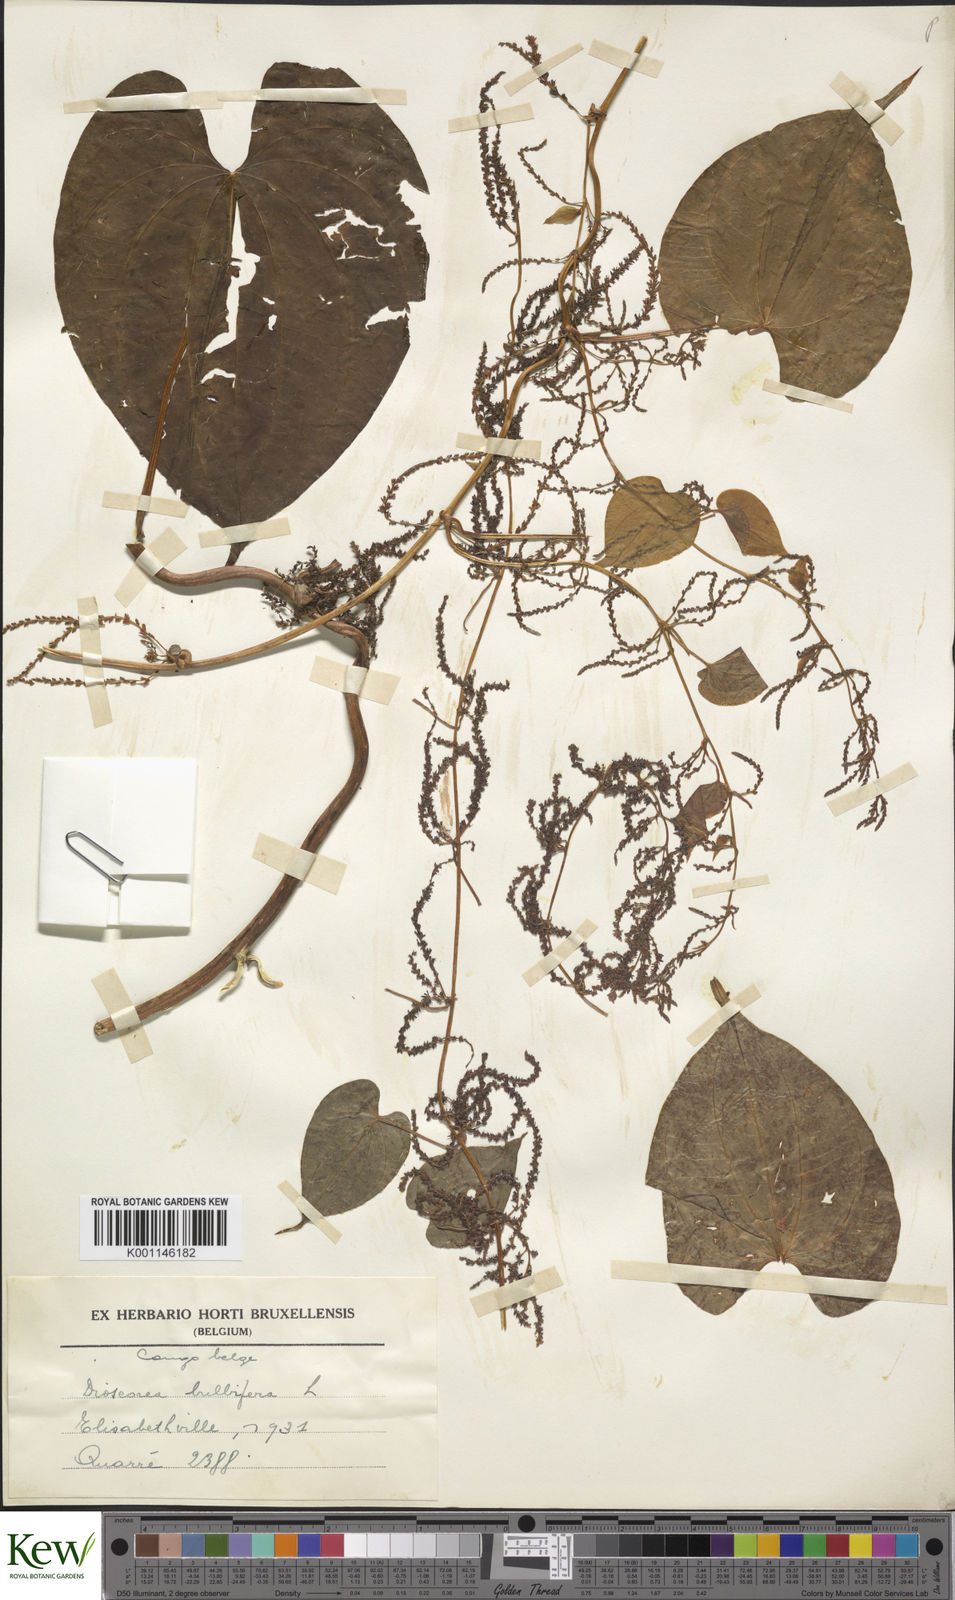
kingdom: Plantae
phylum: Tracheophyta
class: Liliopsida
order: Dioscoreales
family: Dioscoreaceae
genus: Dioscorea
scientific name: Dioscorea bulbifera
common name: Air yam
